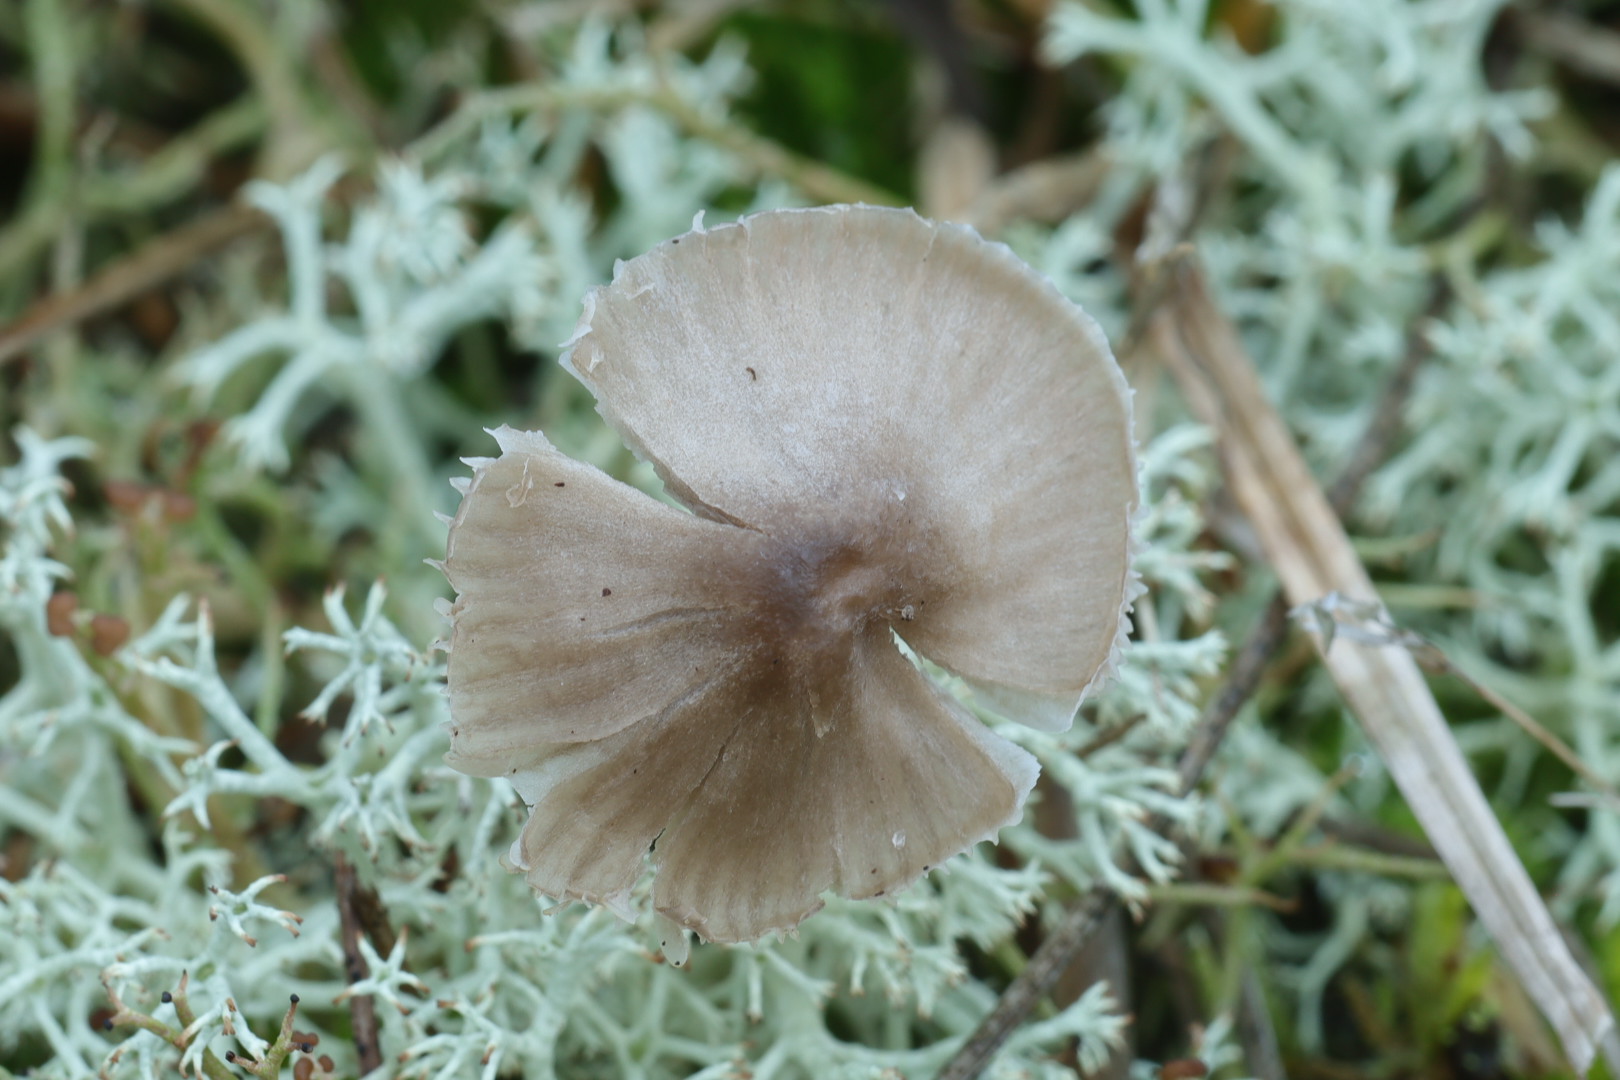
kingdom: Fungi
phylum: Basidiomycota
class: Agaricomycetes
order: Agaricales
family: Mycenaceae
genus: Mycena
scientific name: Mycena leptocephala
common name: klor-huesvamp
